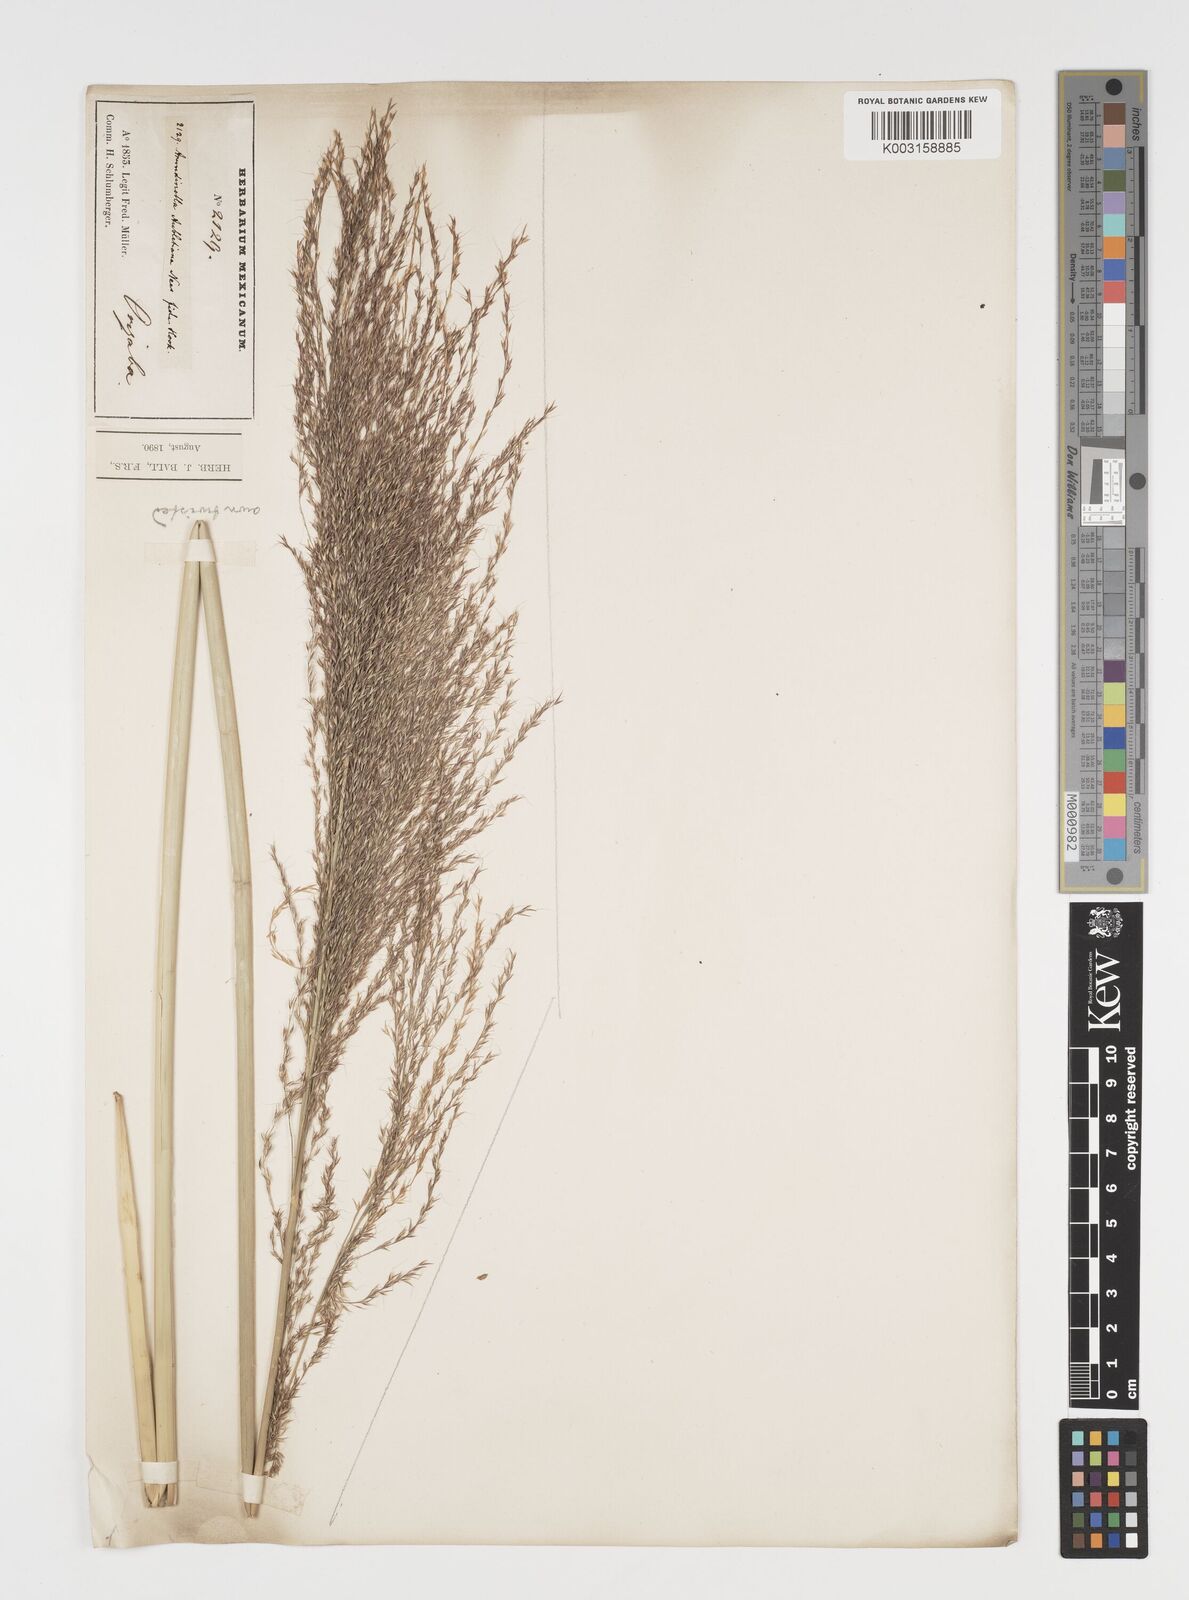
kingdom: Plantae
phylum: Tracheophyta
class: Liliopsida
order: Poales
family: Poaceae
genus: Arundinella
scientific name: Arundinella hispida
